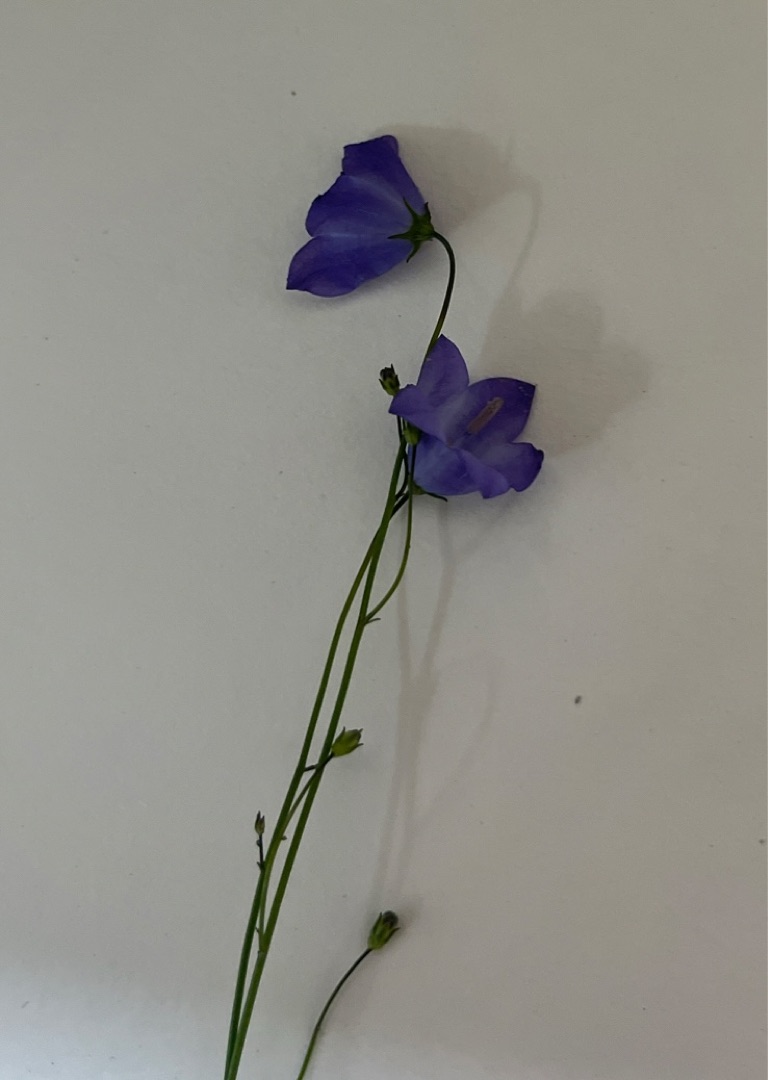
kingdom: Plantae
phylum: Tracheophyta
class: Magnoliopsida
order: Asterales
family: Campanulaceae
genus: Campanula
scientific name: Campanula rotundifolia
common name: Liden klokke
